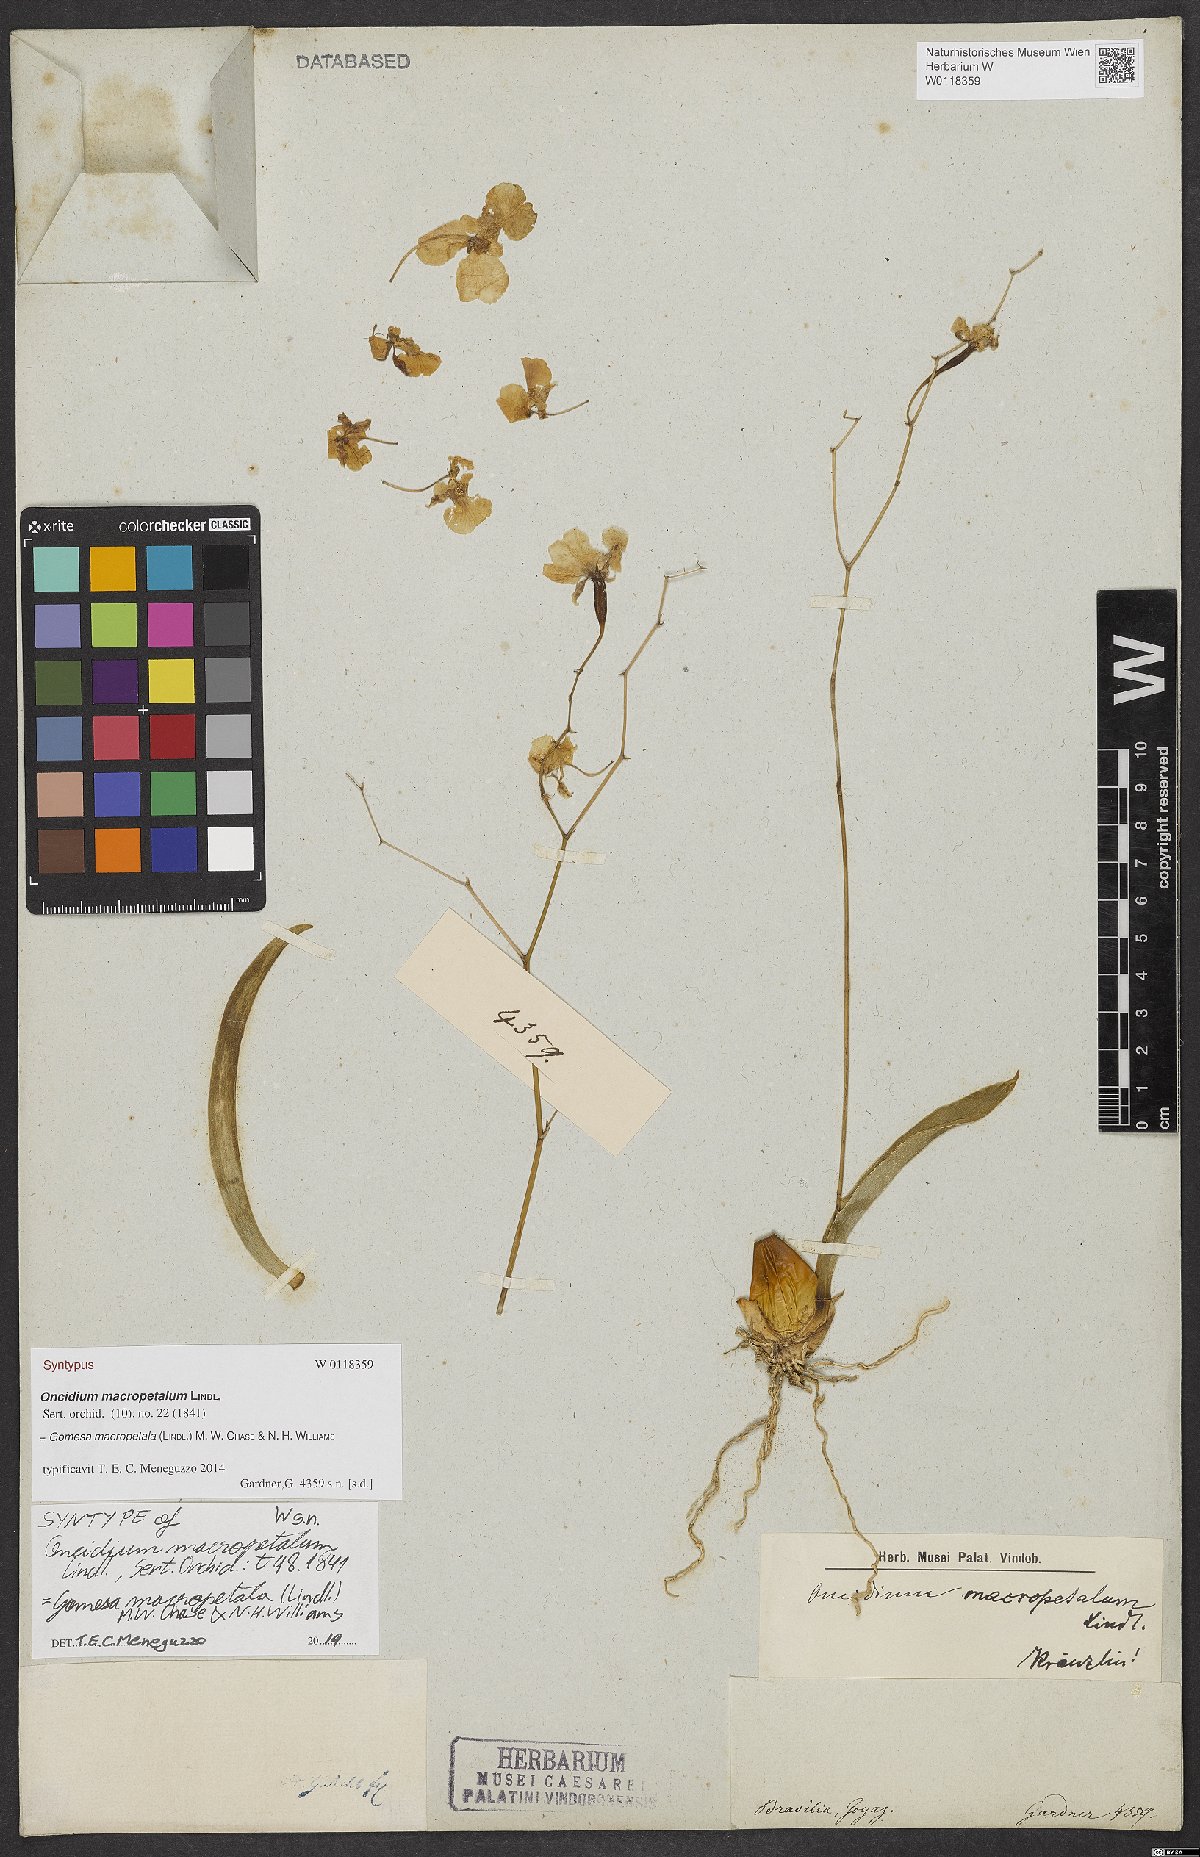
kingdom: Plantae
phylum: Tracheophyta
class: Liliopsida
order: Asparagales
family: Orchidaceae
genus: Gomesa
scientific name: Gomesa macropetala
